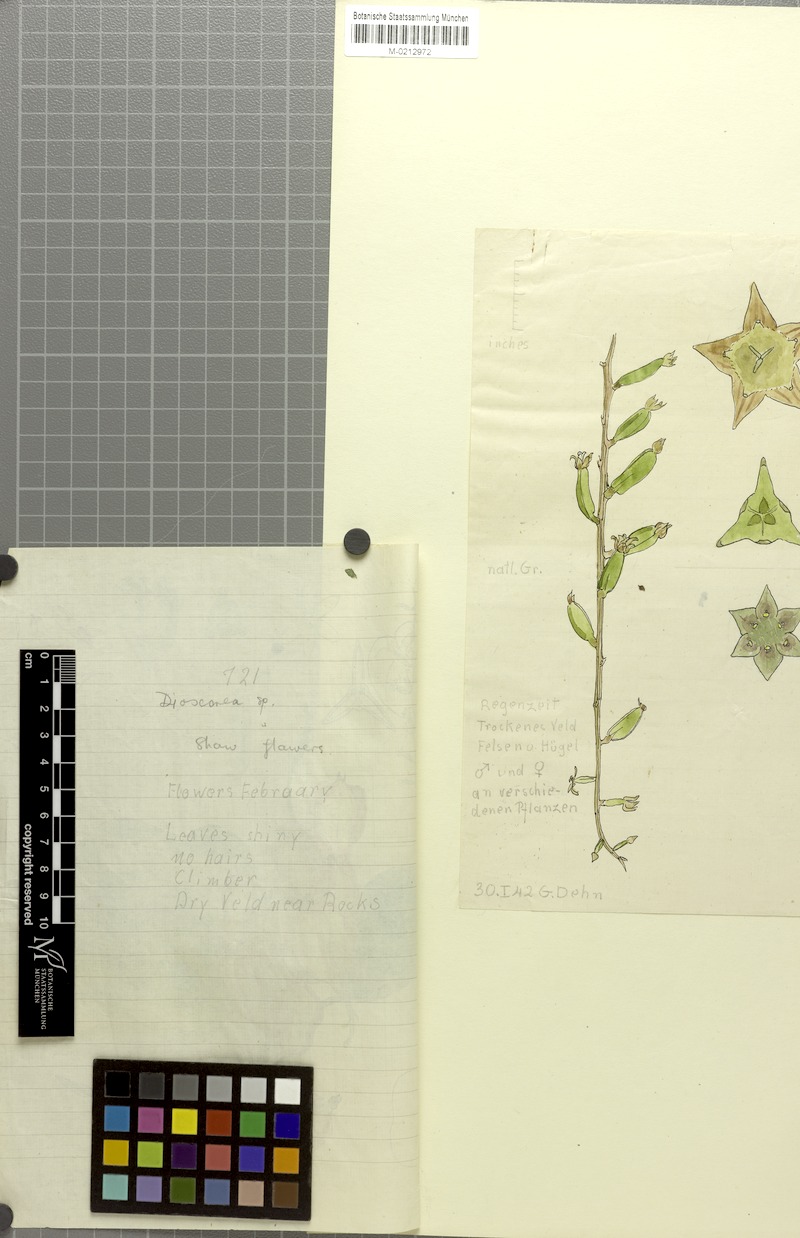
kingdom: Plantae
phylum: Tracheophyta
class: Liliopsida
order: Dioscoreales
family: Dioscoreaceae
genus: Dioscorea
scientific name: Dioscorea buchananii
